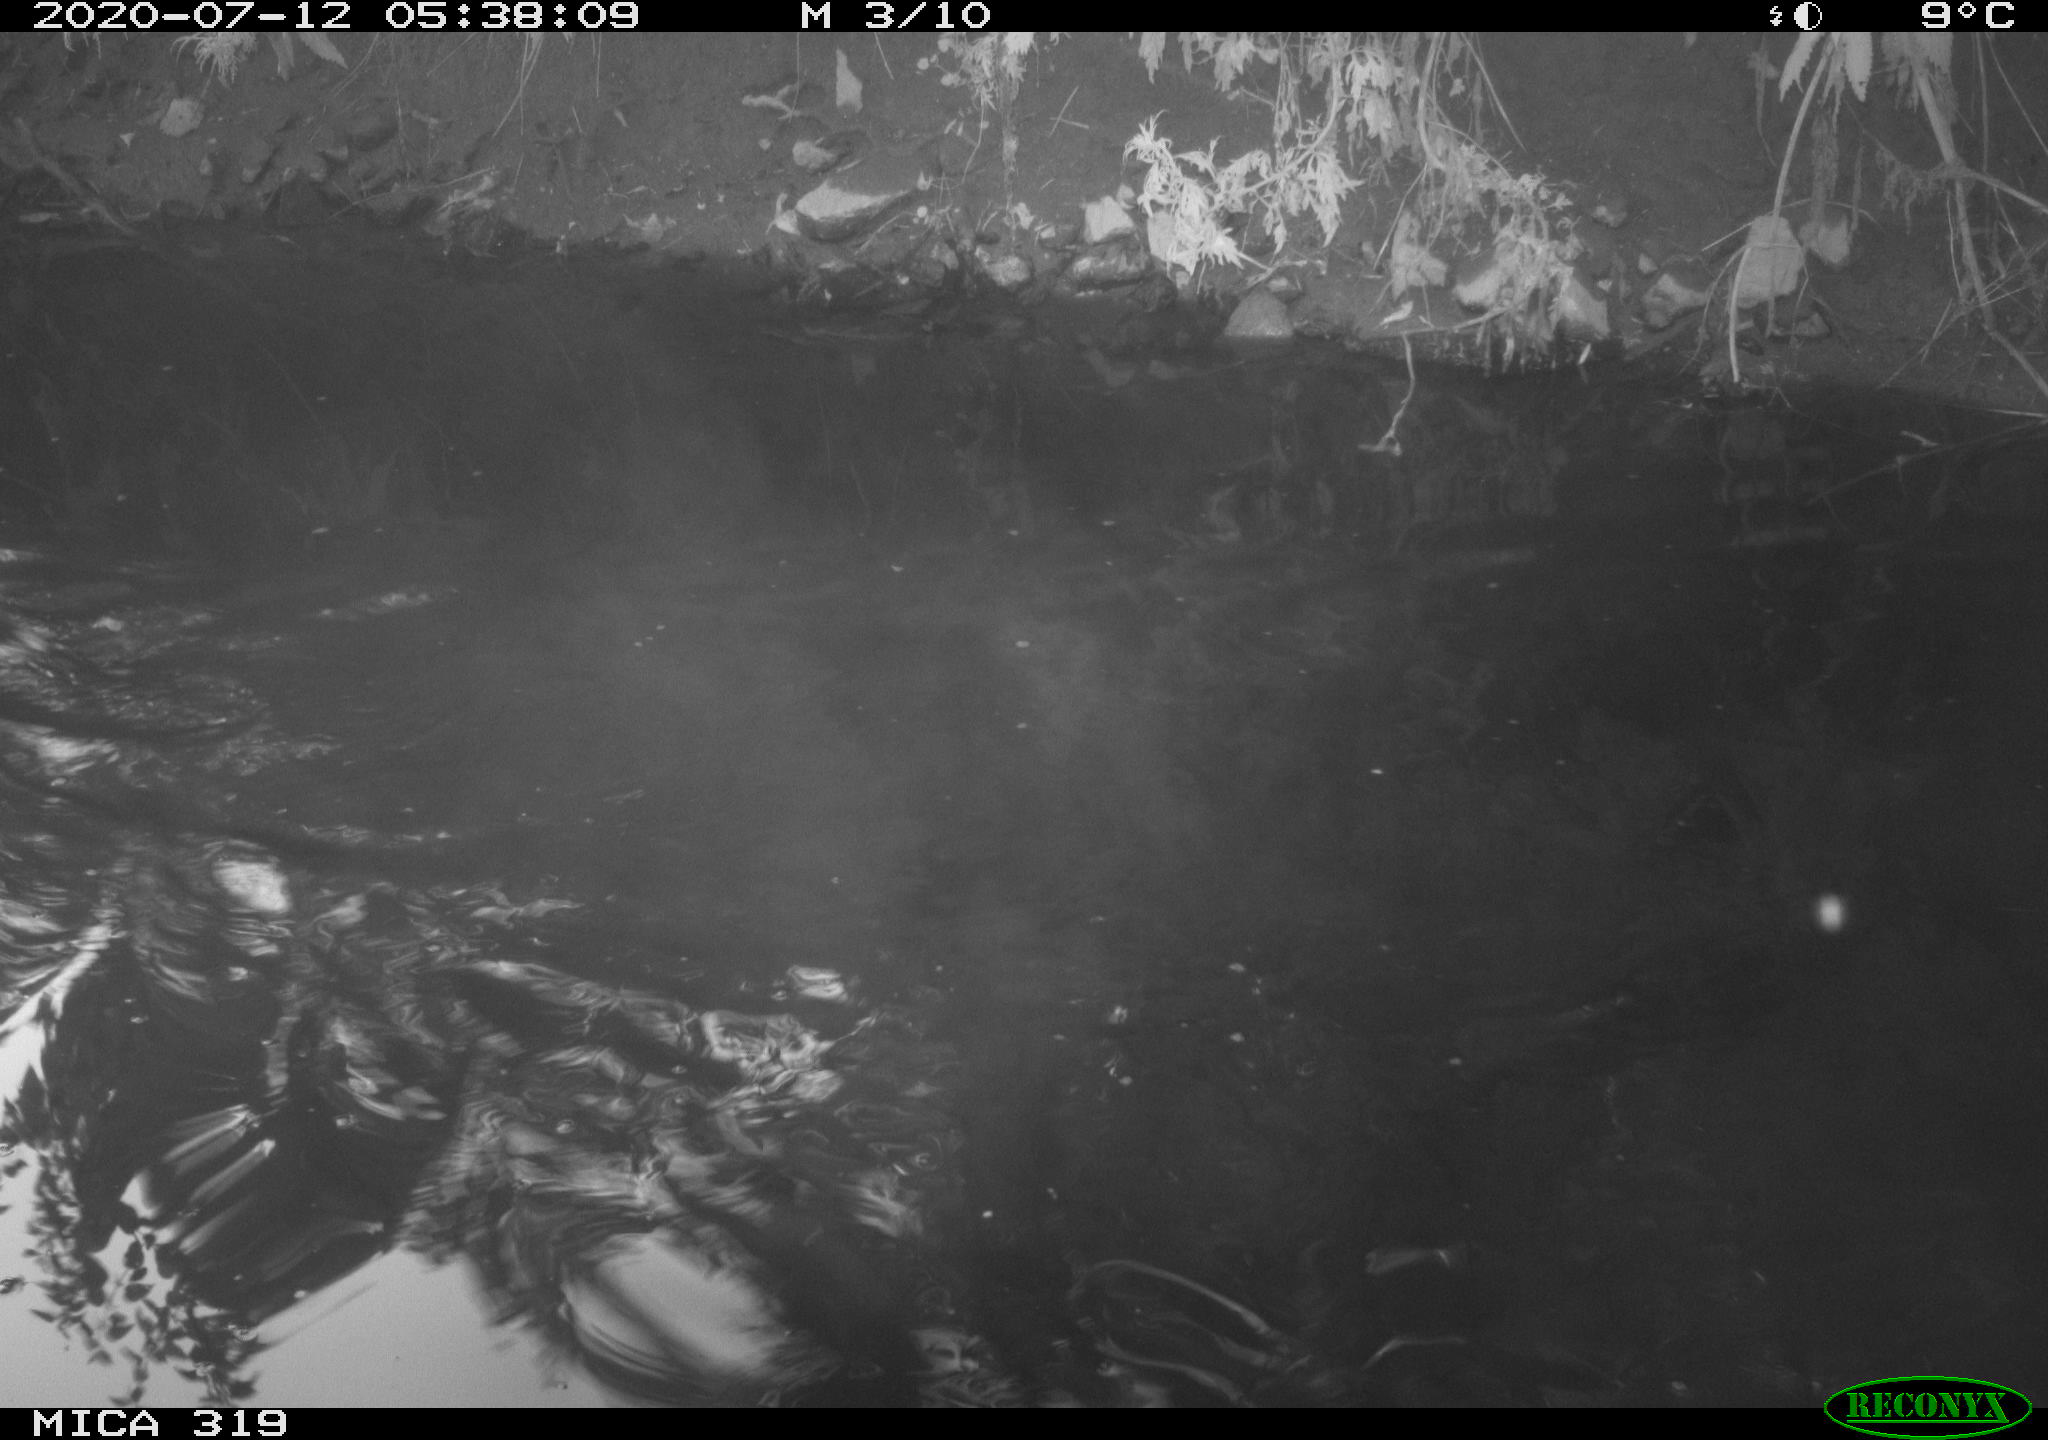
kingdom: Animalia
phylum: Chordata
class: Aves
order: Anseriformes
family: Anatidae
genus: Anas
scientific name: Anas platyrhynchos
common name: Mallard
